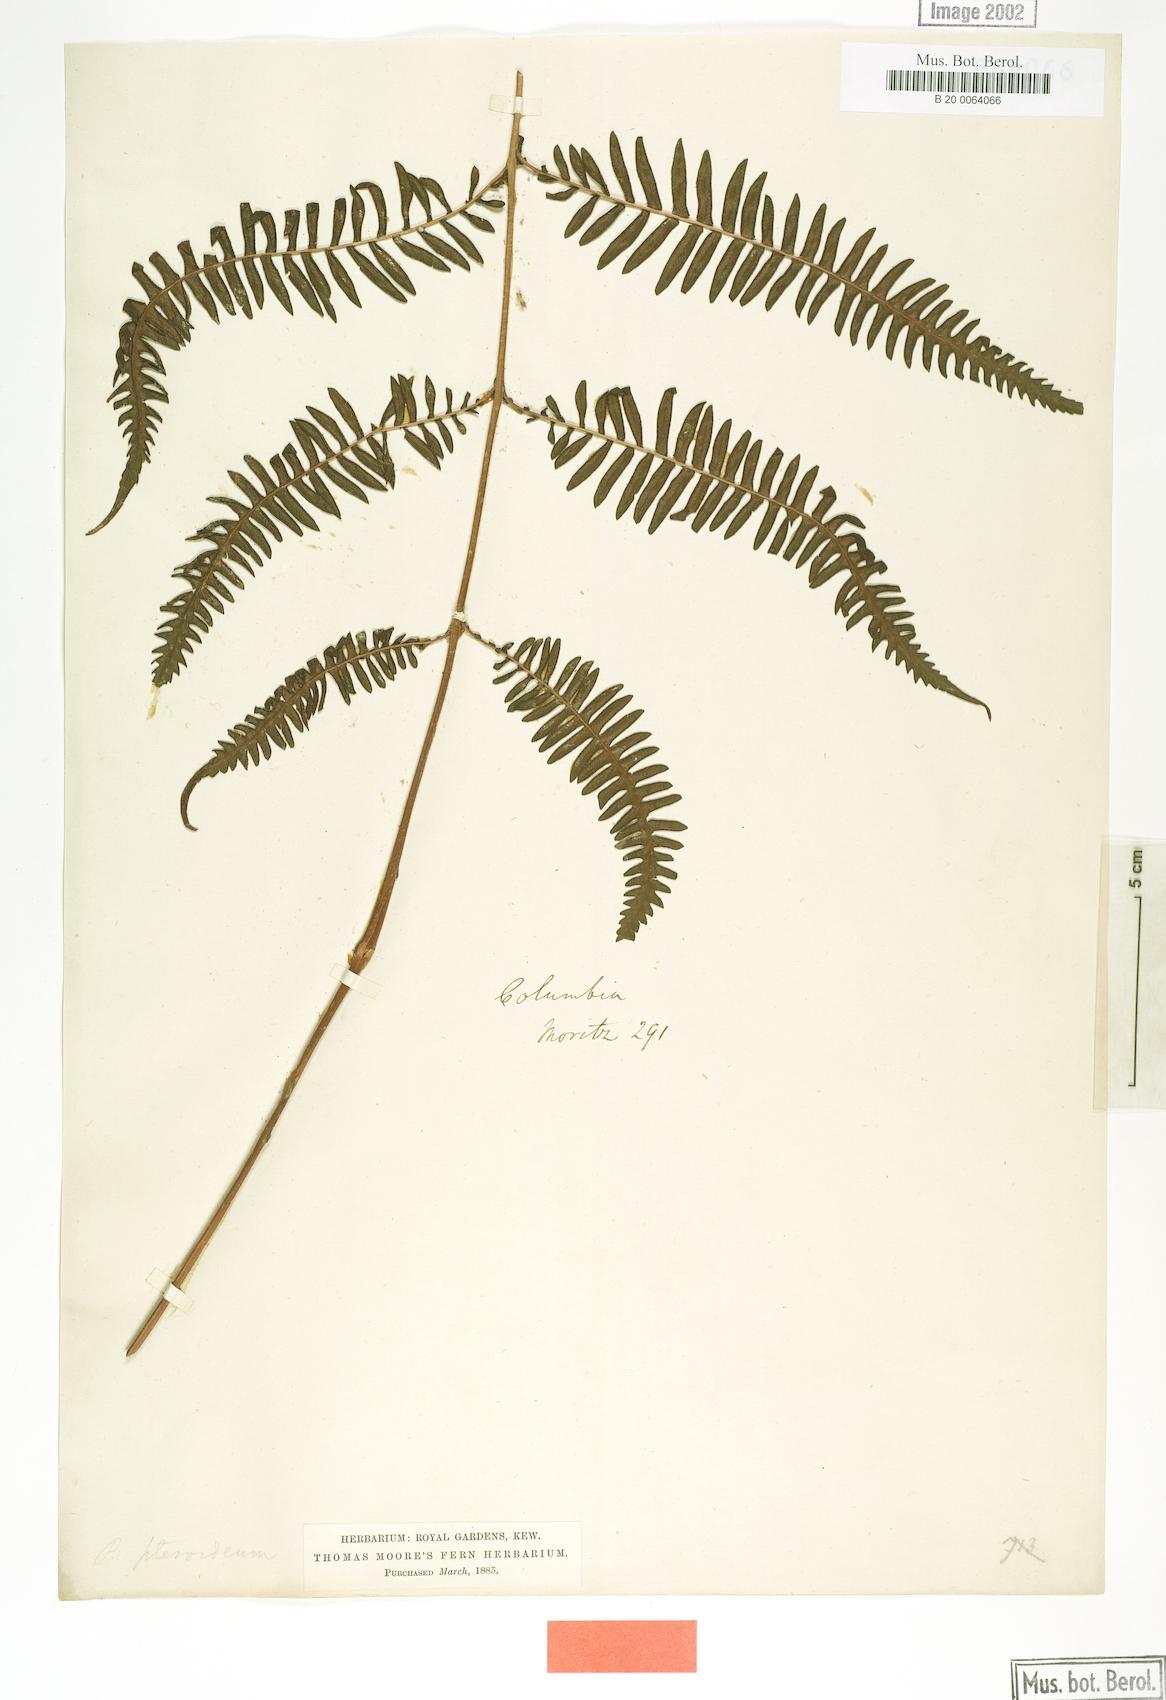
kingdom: Plantae
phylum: Tracheophyta
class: Polypodiopsida
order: Polypodiales
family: Thelypteridaceae
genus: Amauropelta
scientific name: Amauropelta pteroidea
